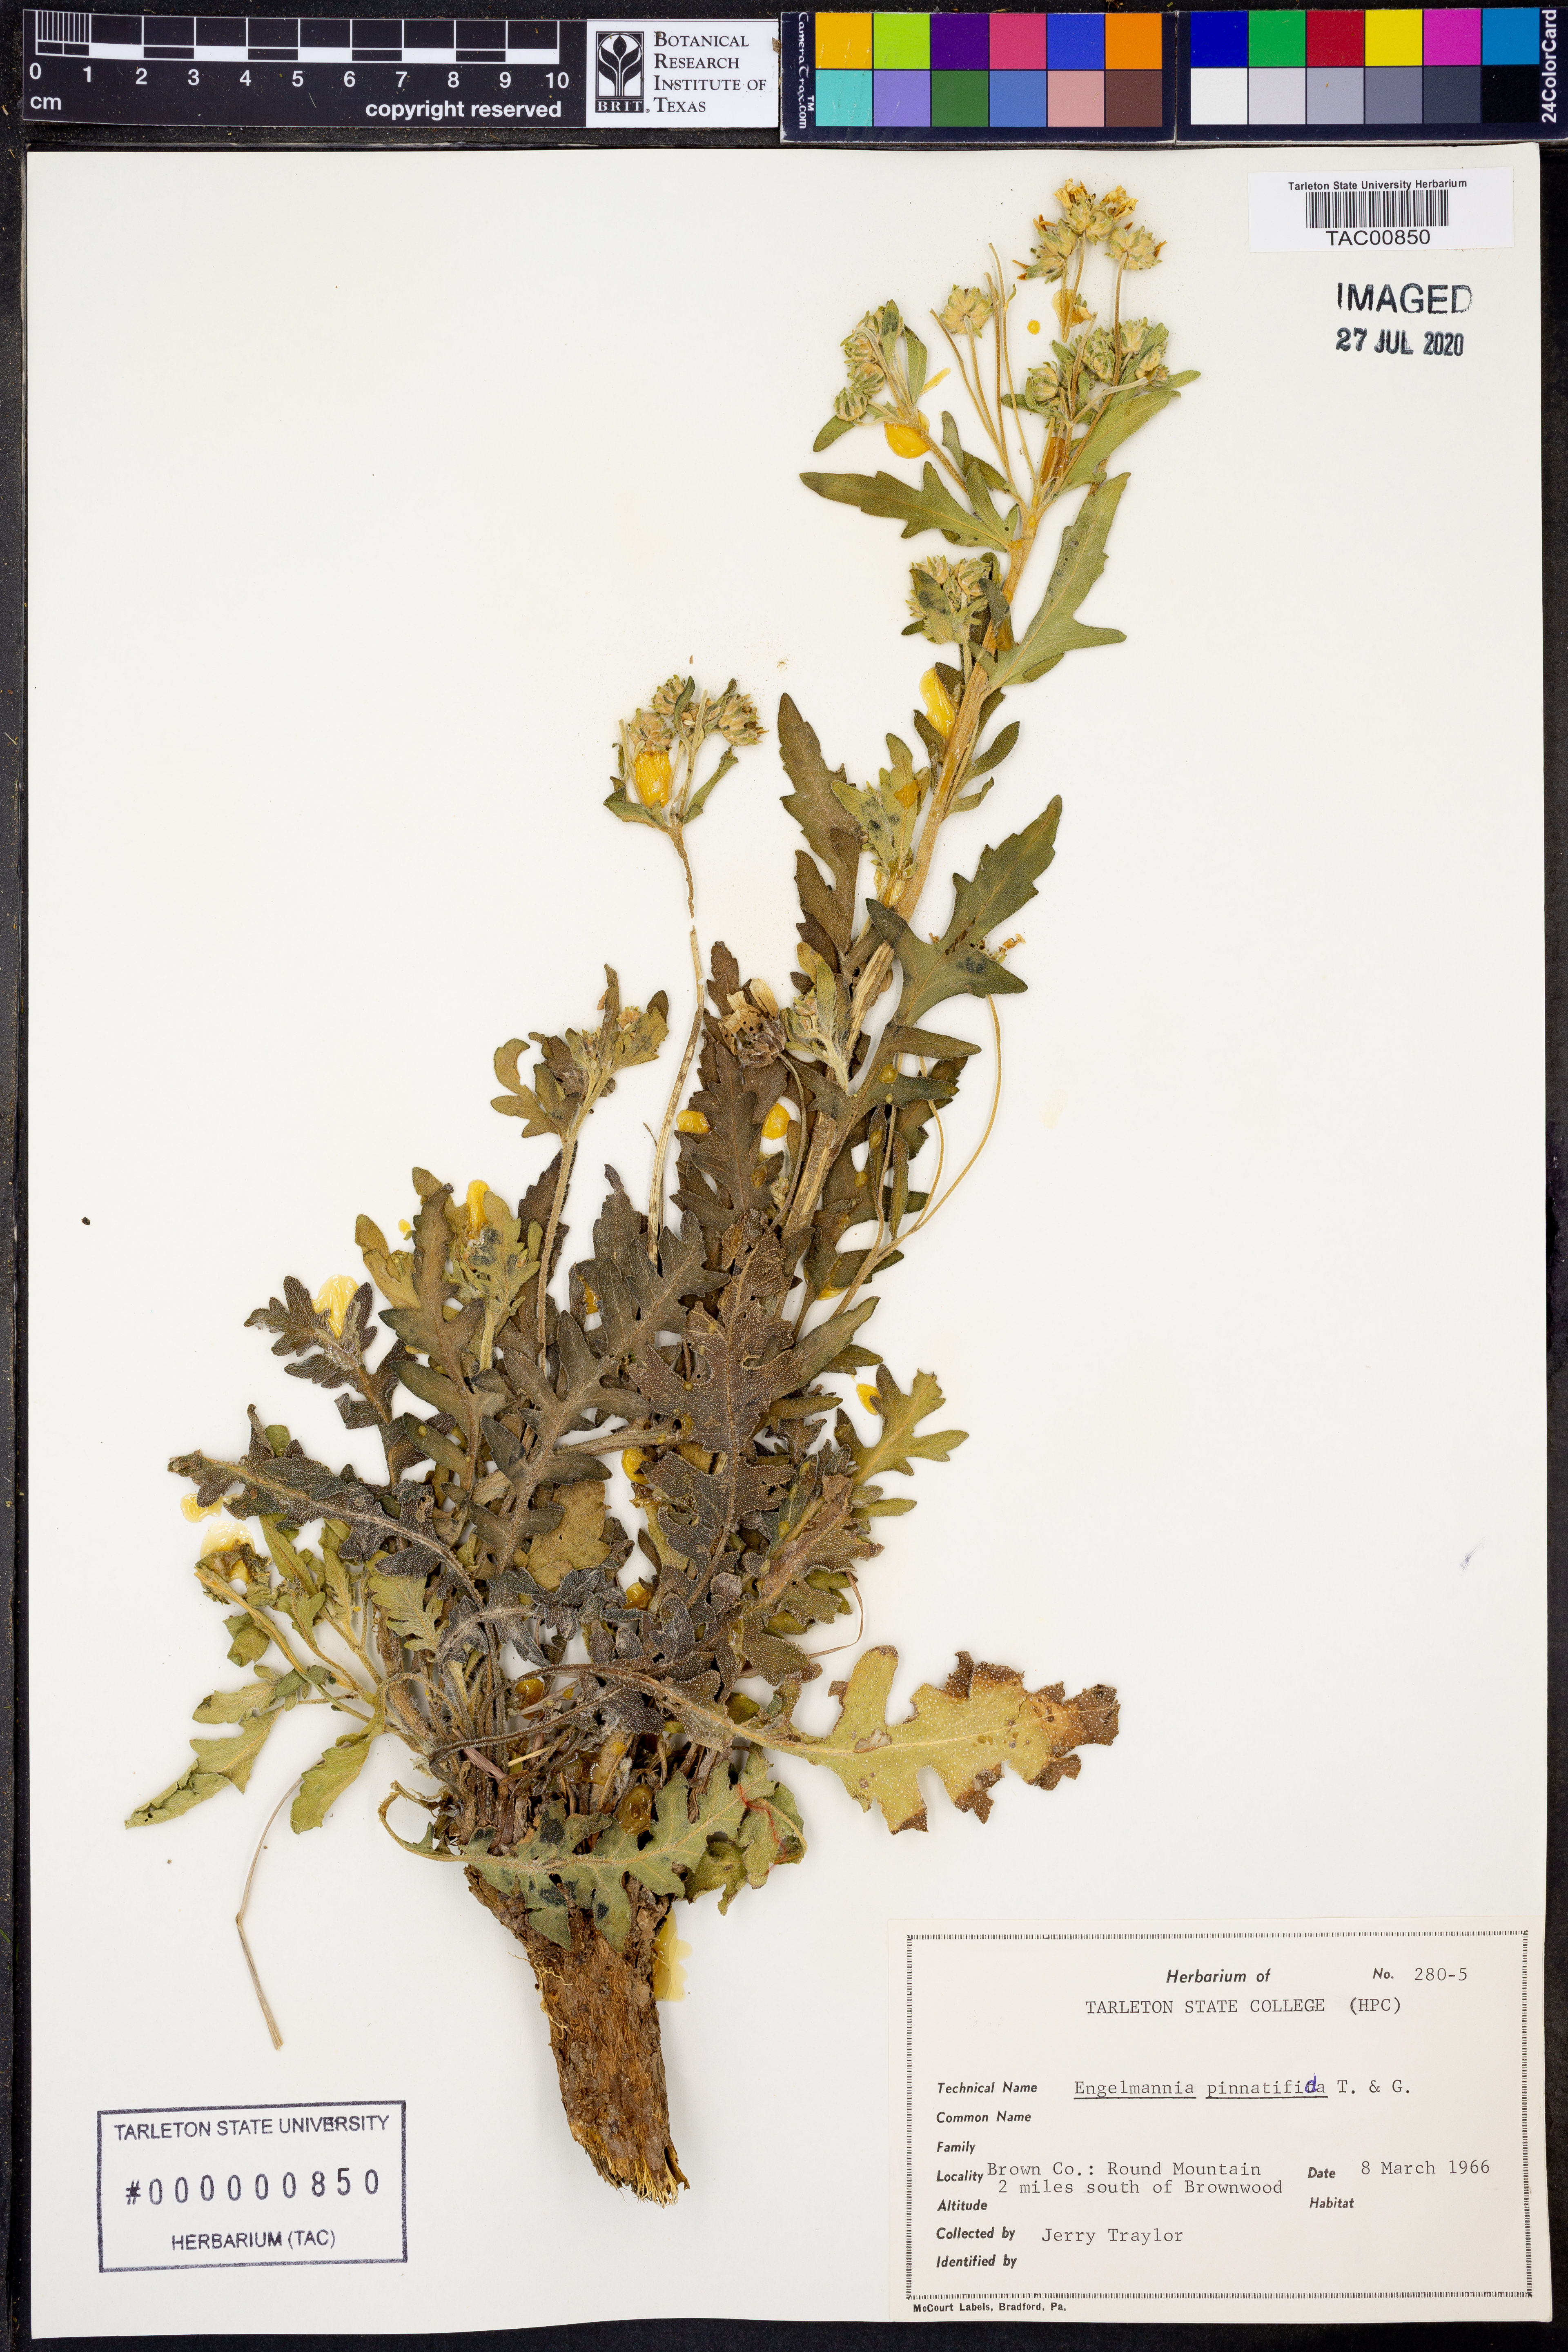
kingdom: Plantae
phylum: Tracheophyta
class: Magnoliopsida
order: Asterales
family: Asteraceae
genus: Engelmannia
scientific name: Engelmannia peristenia
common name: Engelmann's daisy
